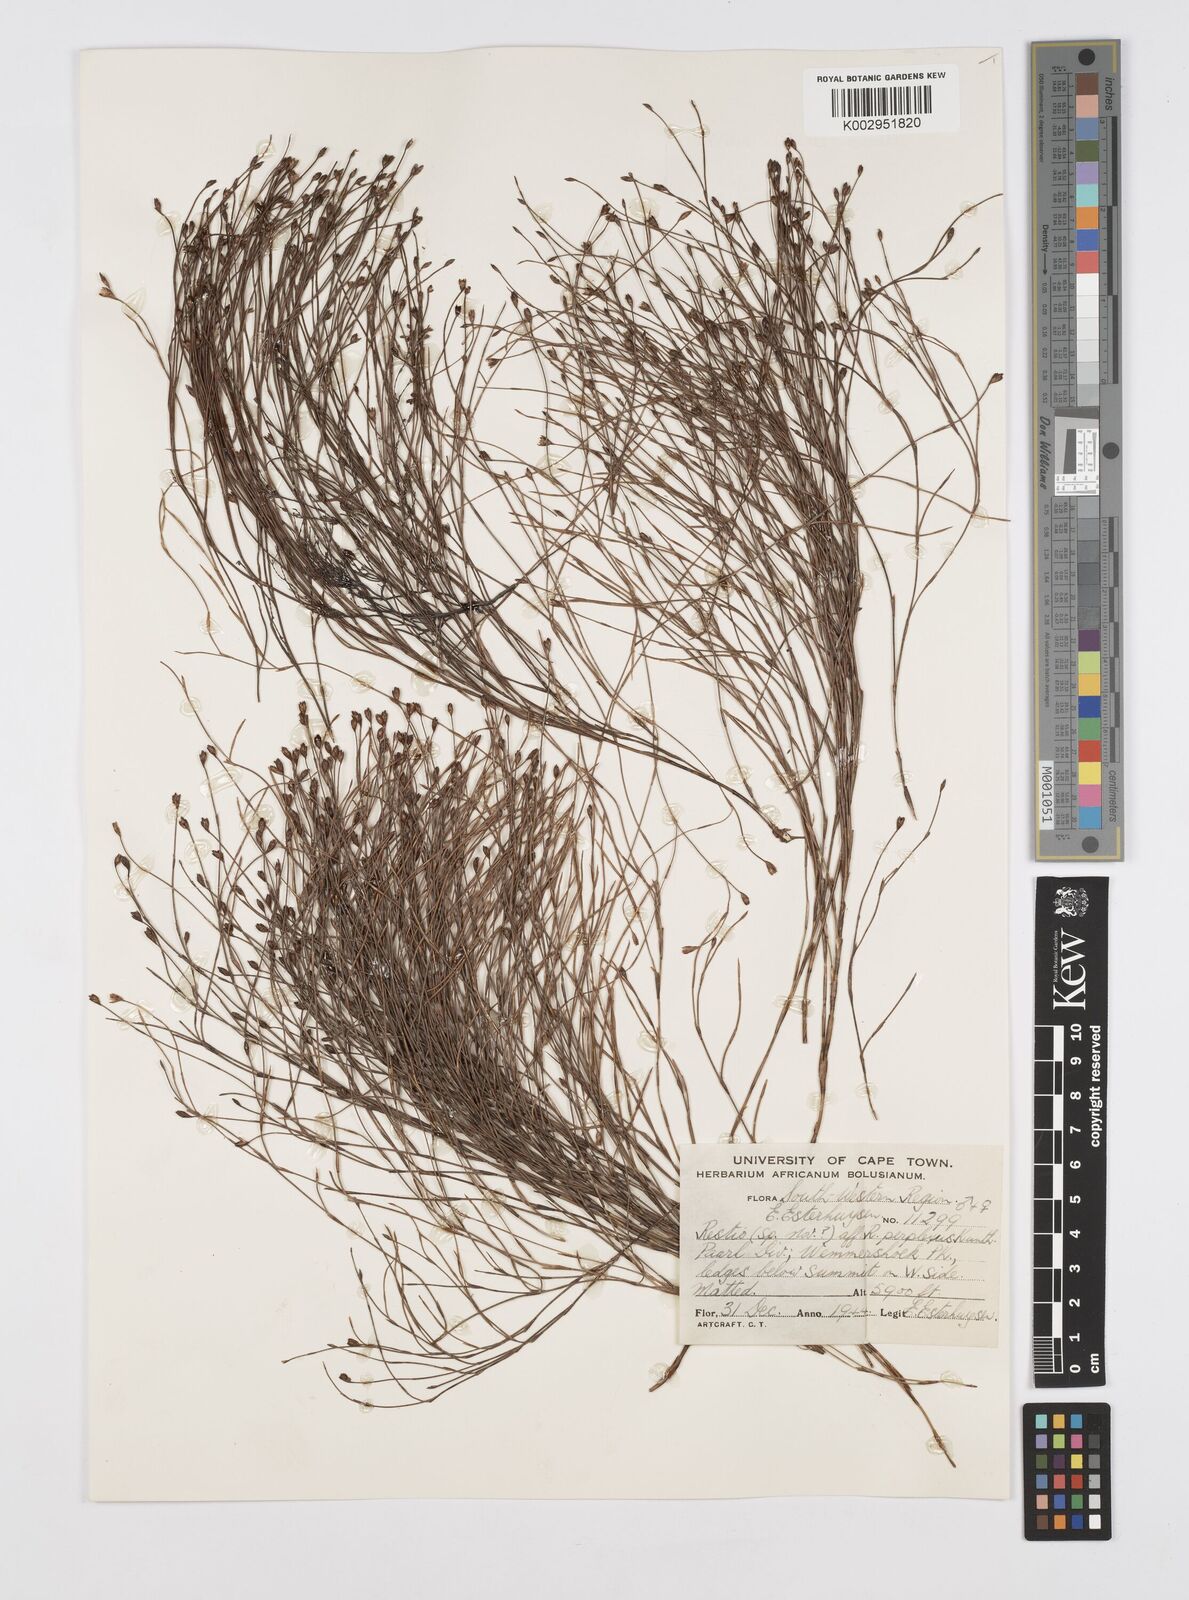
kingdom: Plantae
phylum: Tracheophyta
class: Liliopsida
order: Poales
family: Restionaceae
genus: Restio
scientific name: Restio perplexus
